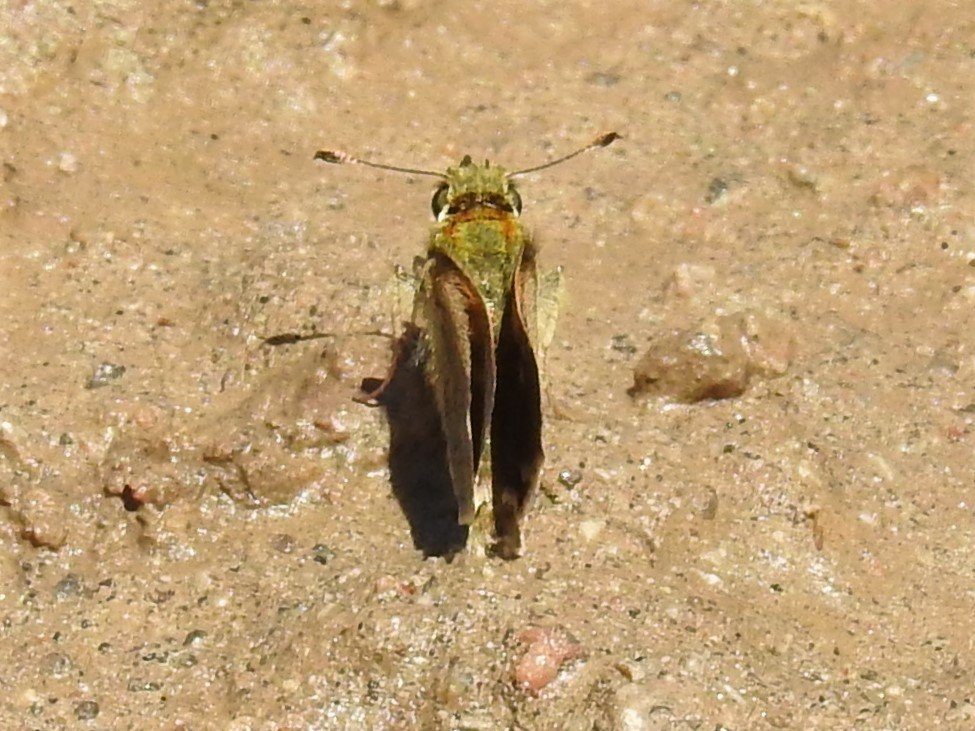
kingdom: Animalia
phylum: Arthropoda
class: Insecta
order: Lepidoptera
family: Hesperiidae
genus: Polites
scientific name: Polites themistocles
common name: Tawny-edged Skipper
